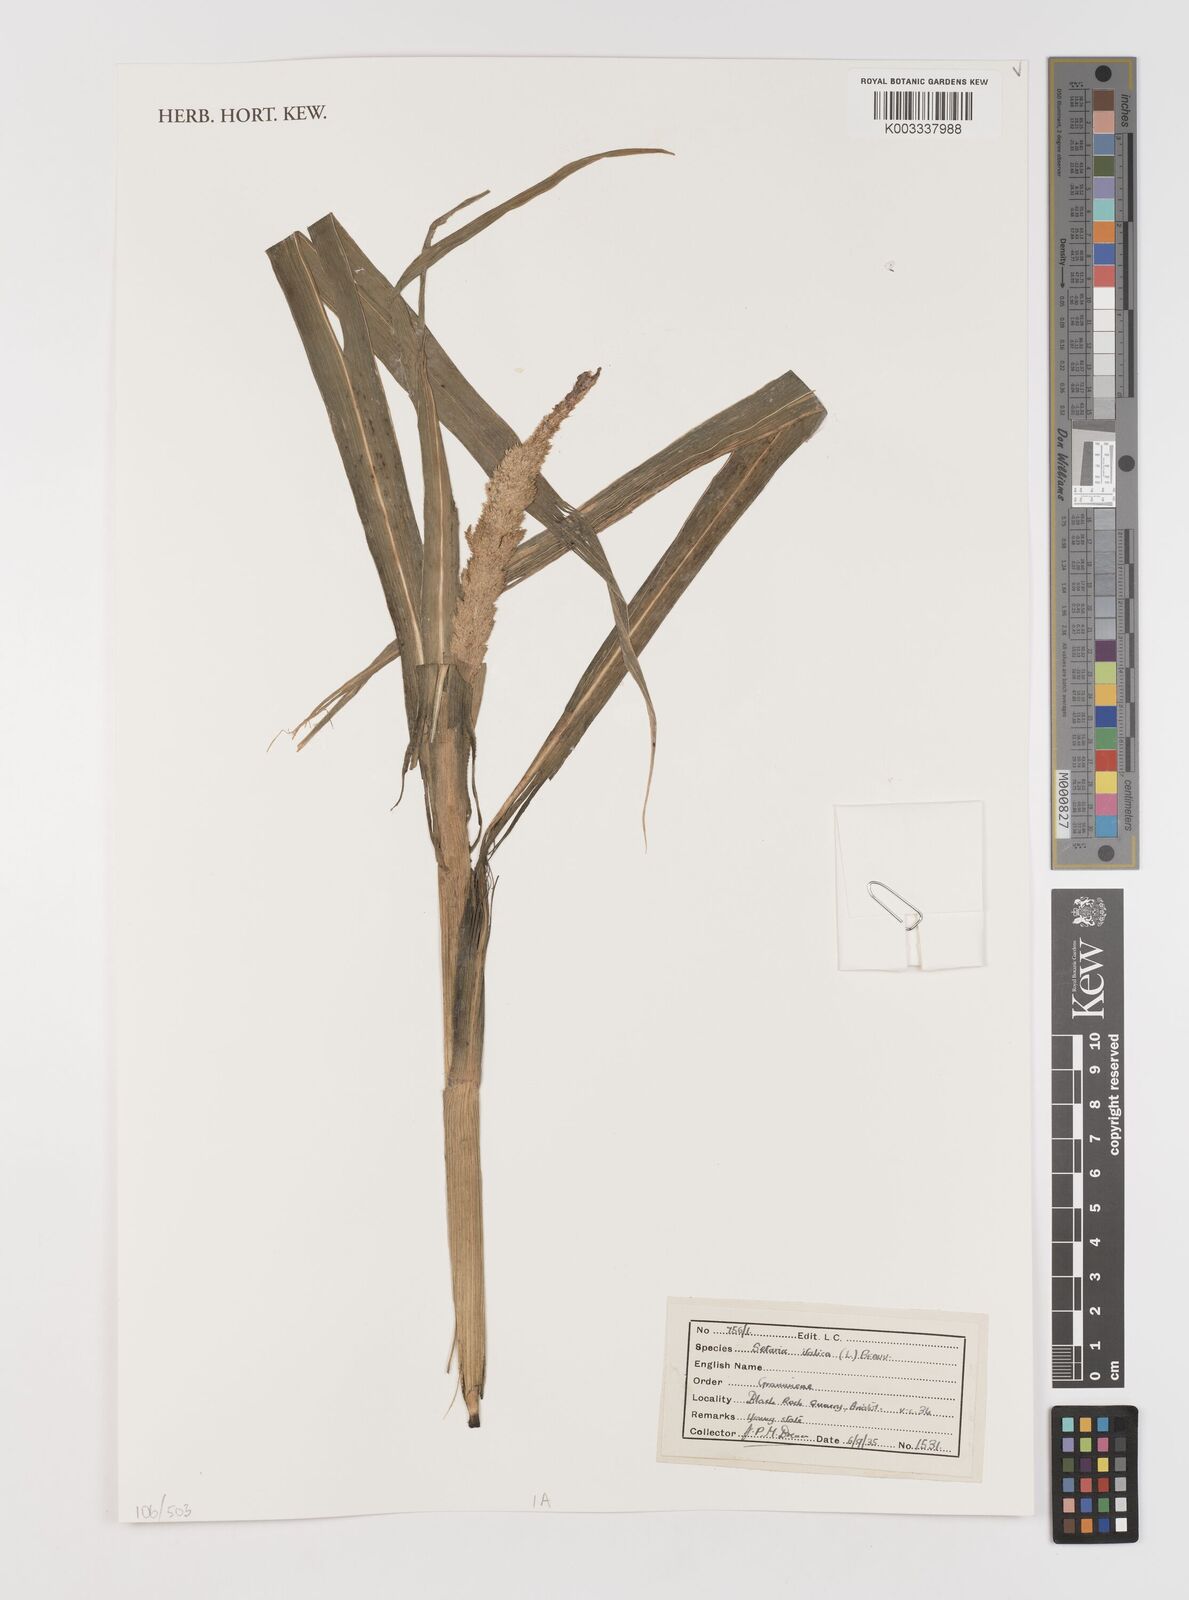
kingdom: Plantae
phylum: Tracheophyta
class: Liliopsida
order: Poales
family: Poaceae
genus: Setaria
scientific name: Setaria italica
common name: Foxtail bristle-grass
